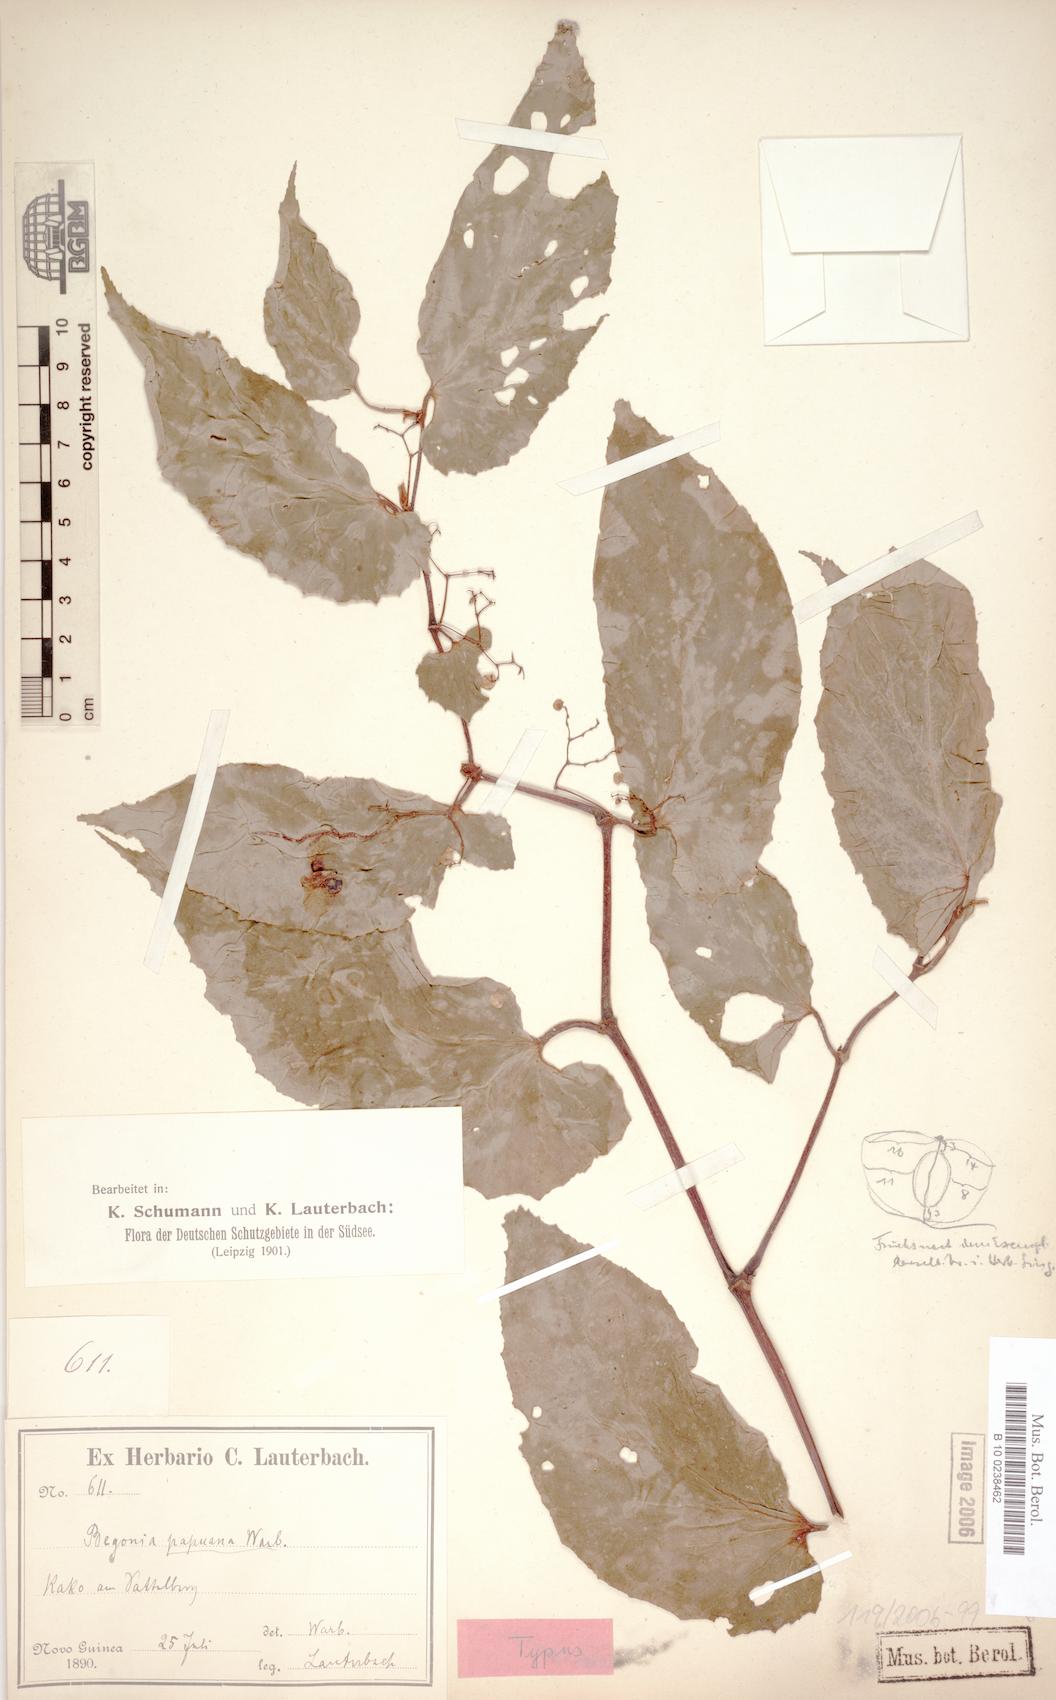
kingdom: Plantae
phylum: Tracheophyta
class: Magnoliopsida
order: Cucurbitales
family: Begoniaceae
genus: Begonia
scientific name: Begonia papuana
